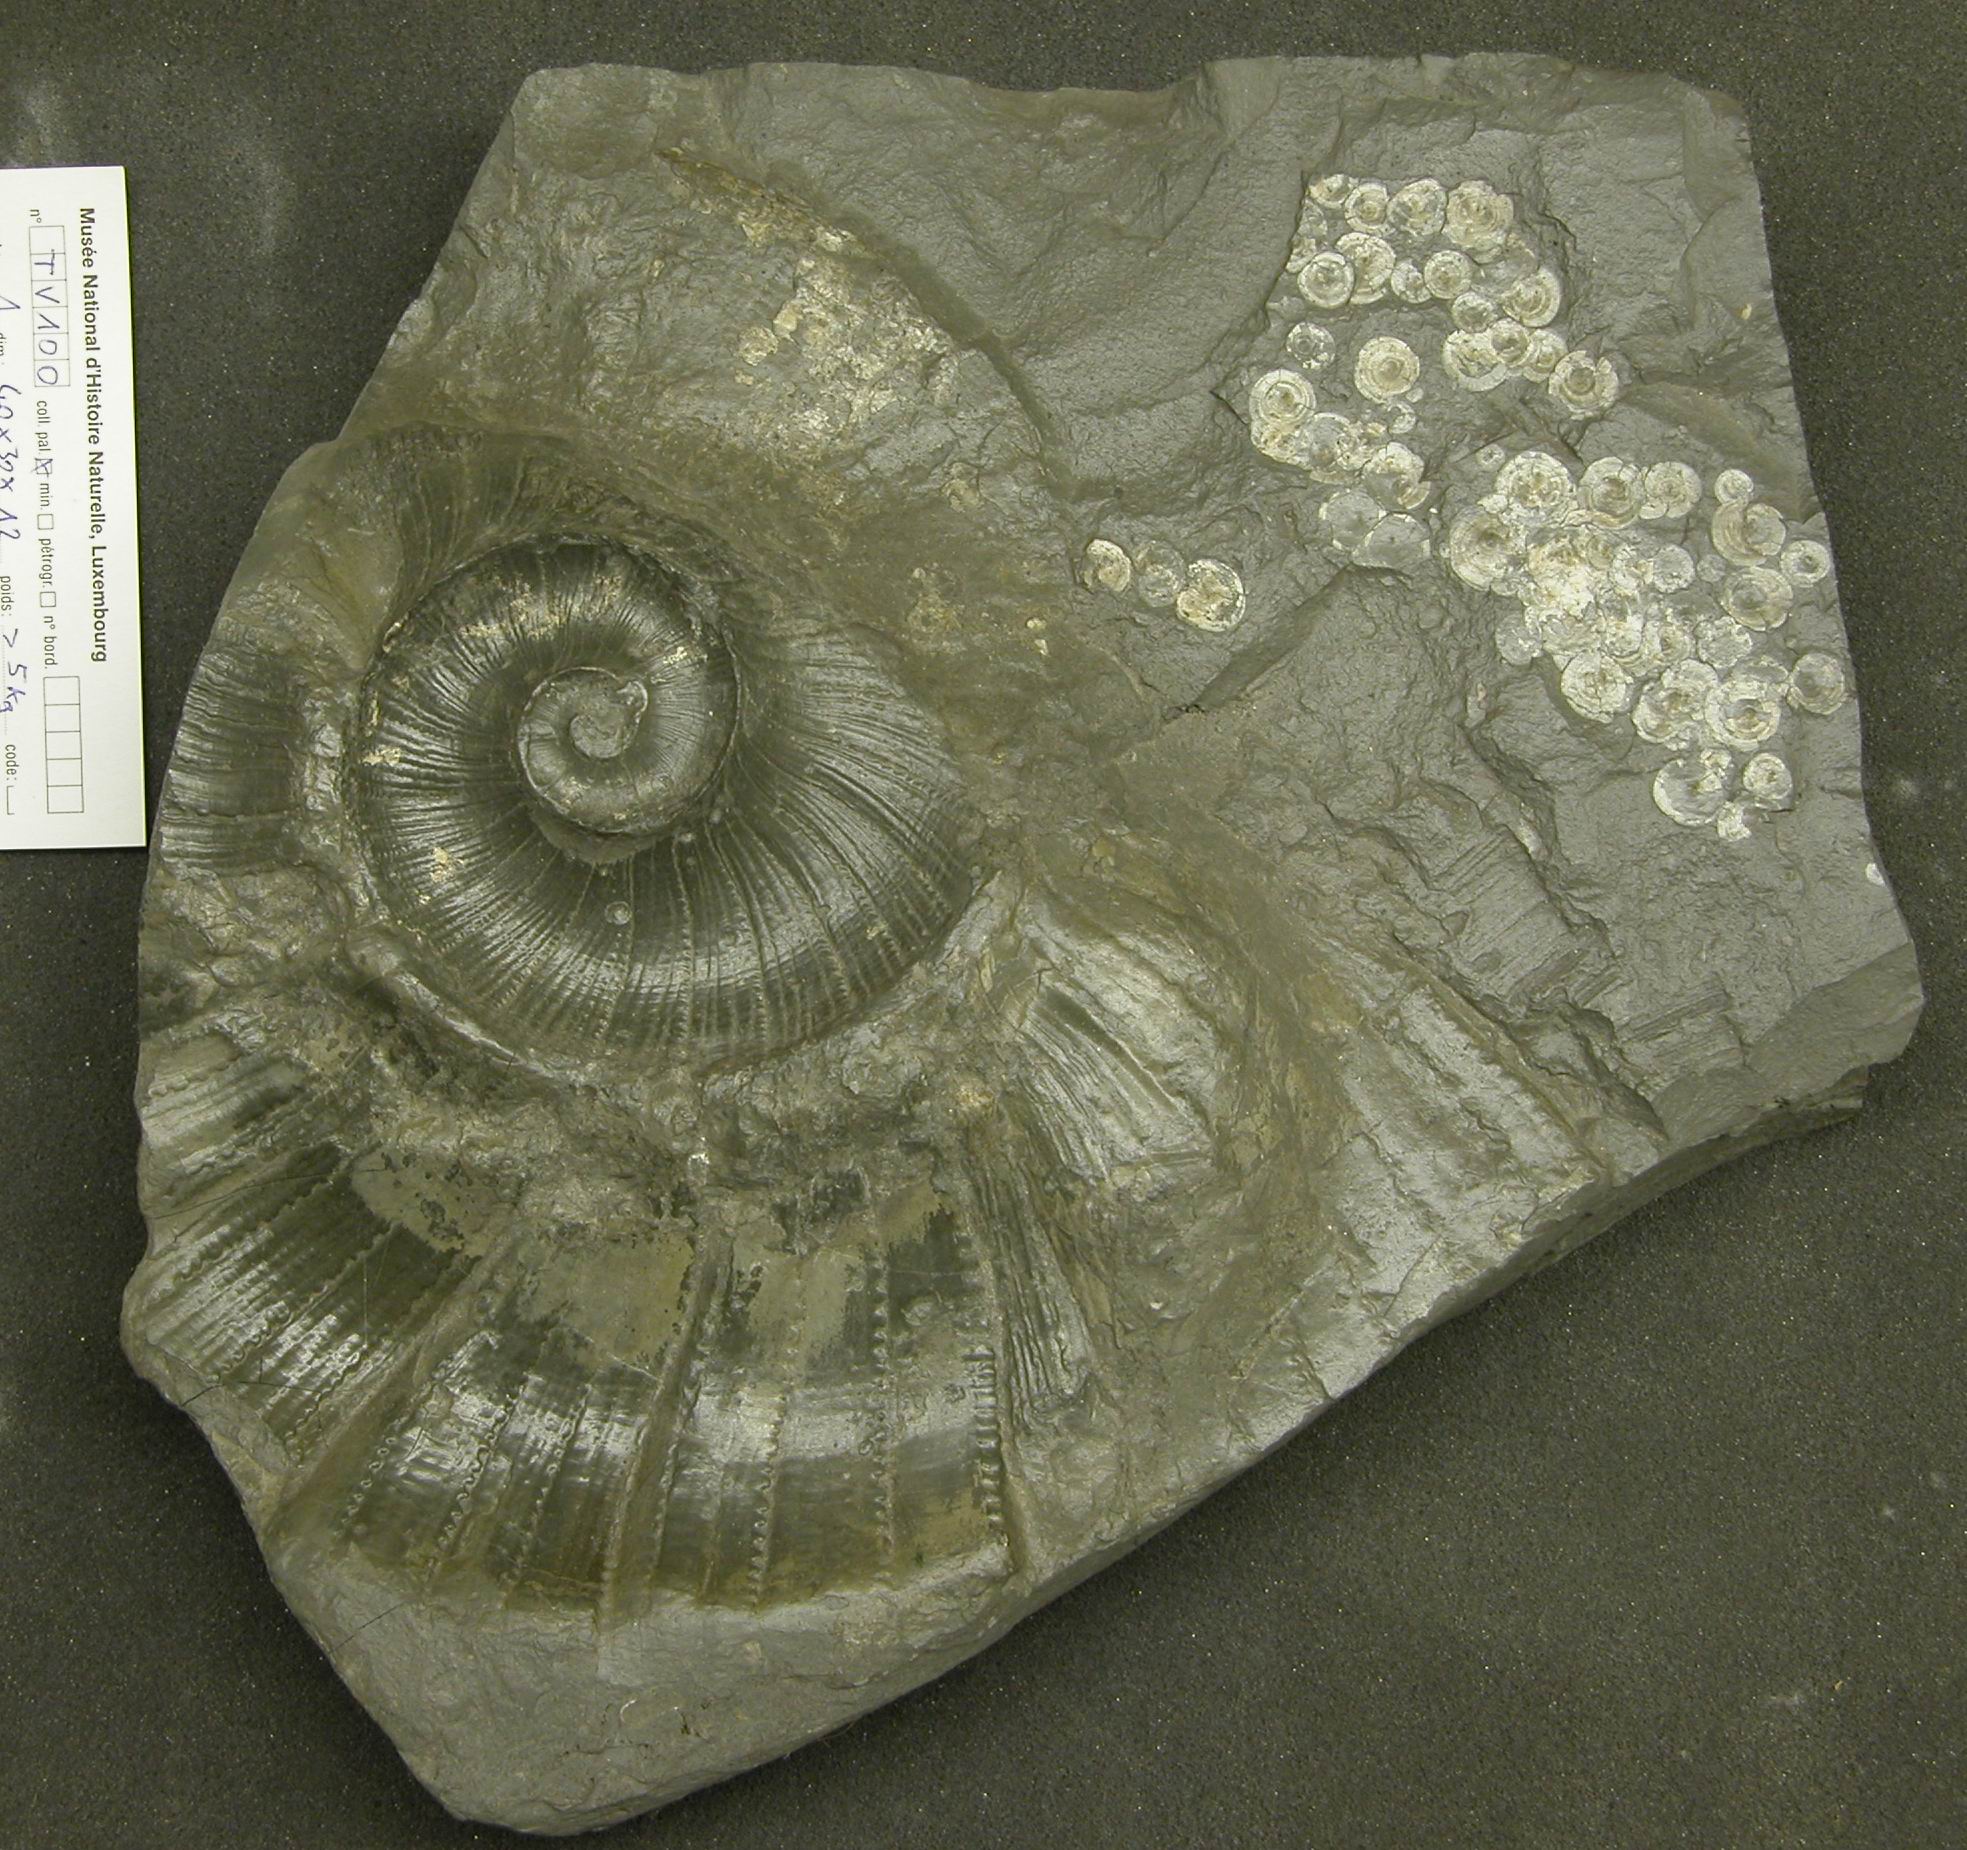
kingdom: Animalia
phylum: Mollusca
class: Cephalopoda
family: Lytoceratidae
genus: Lytoceras
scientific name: Lytoceras
